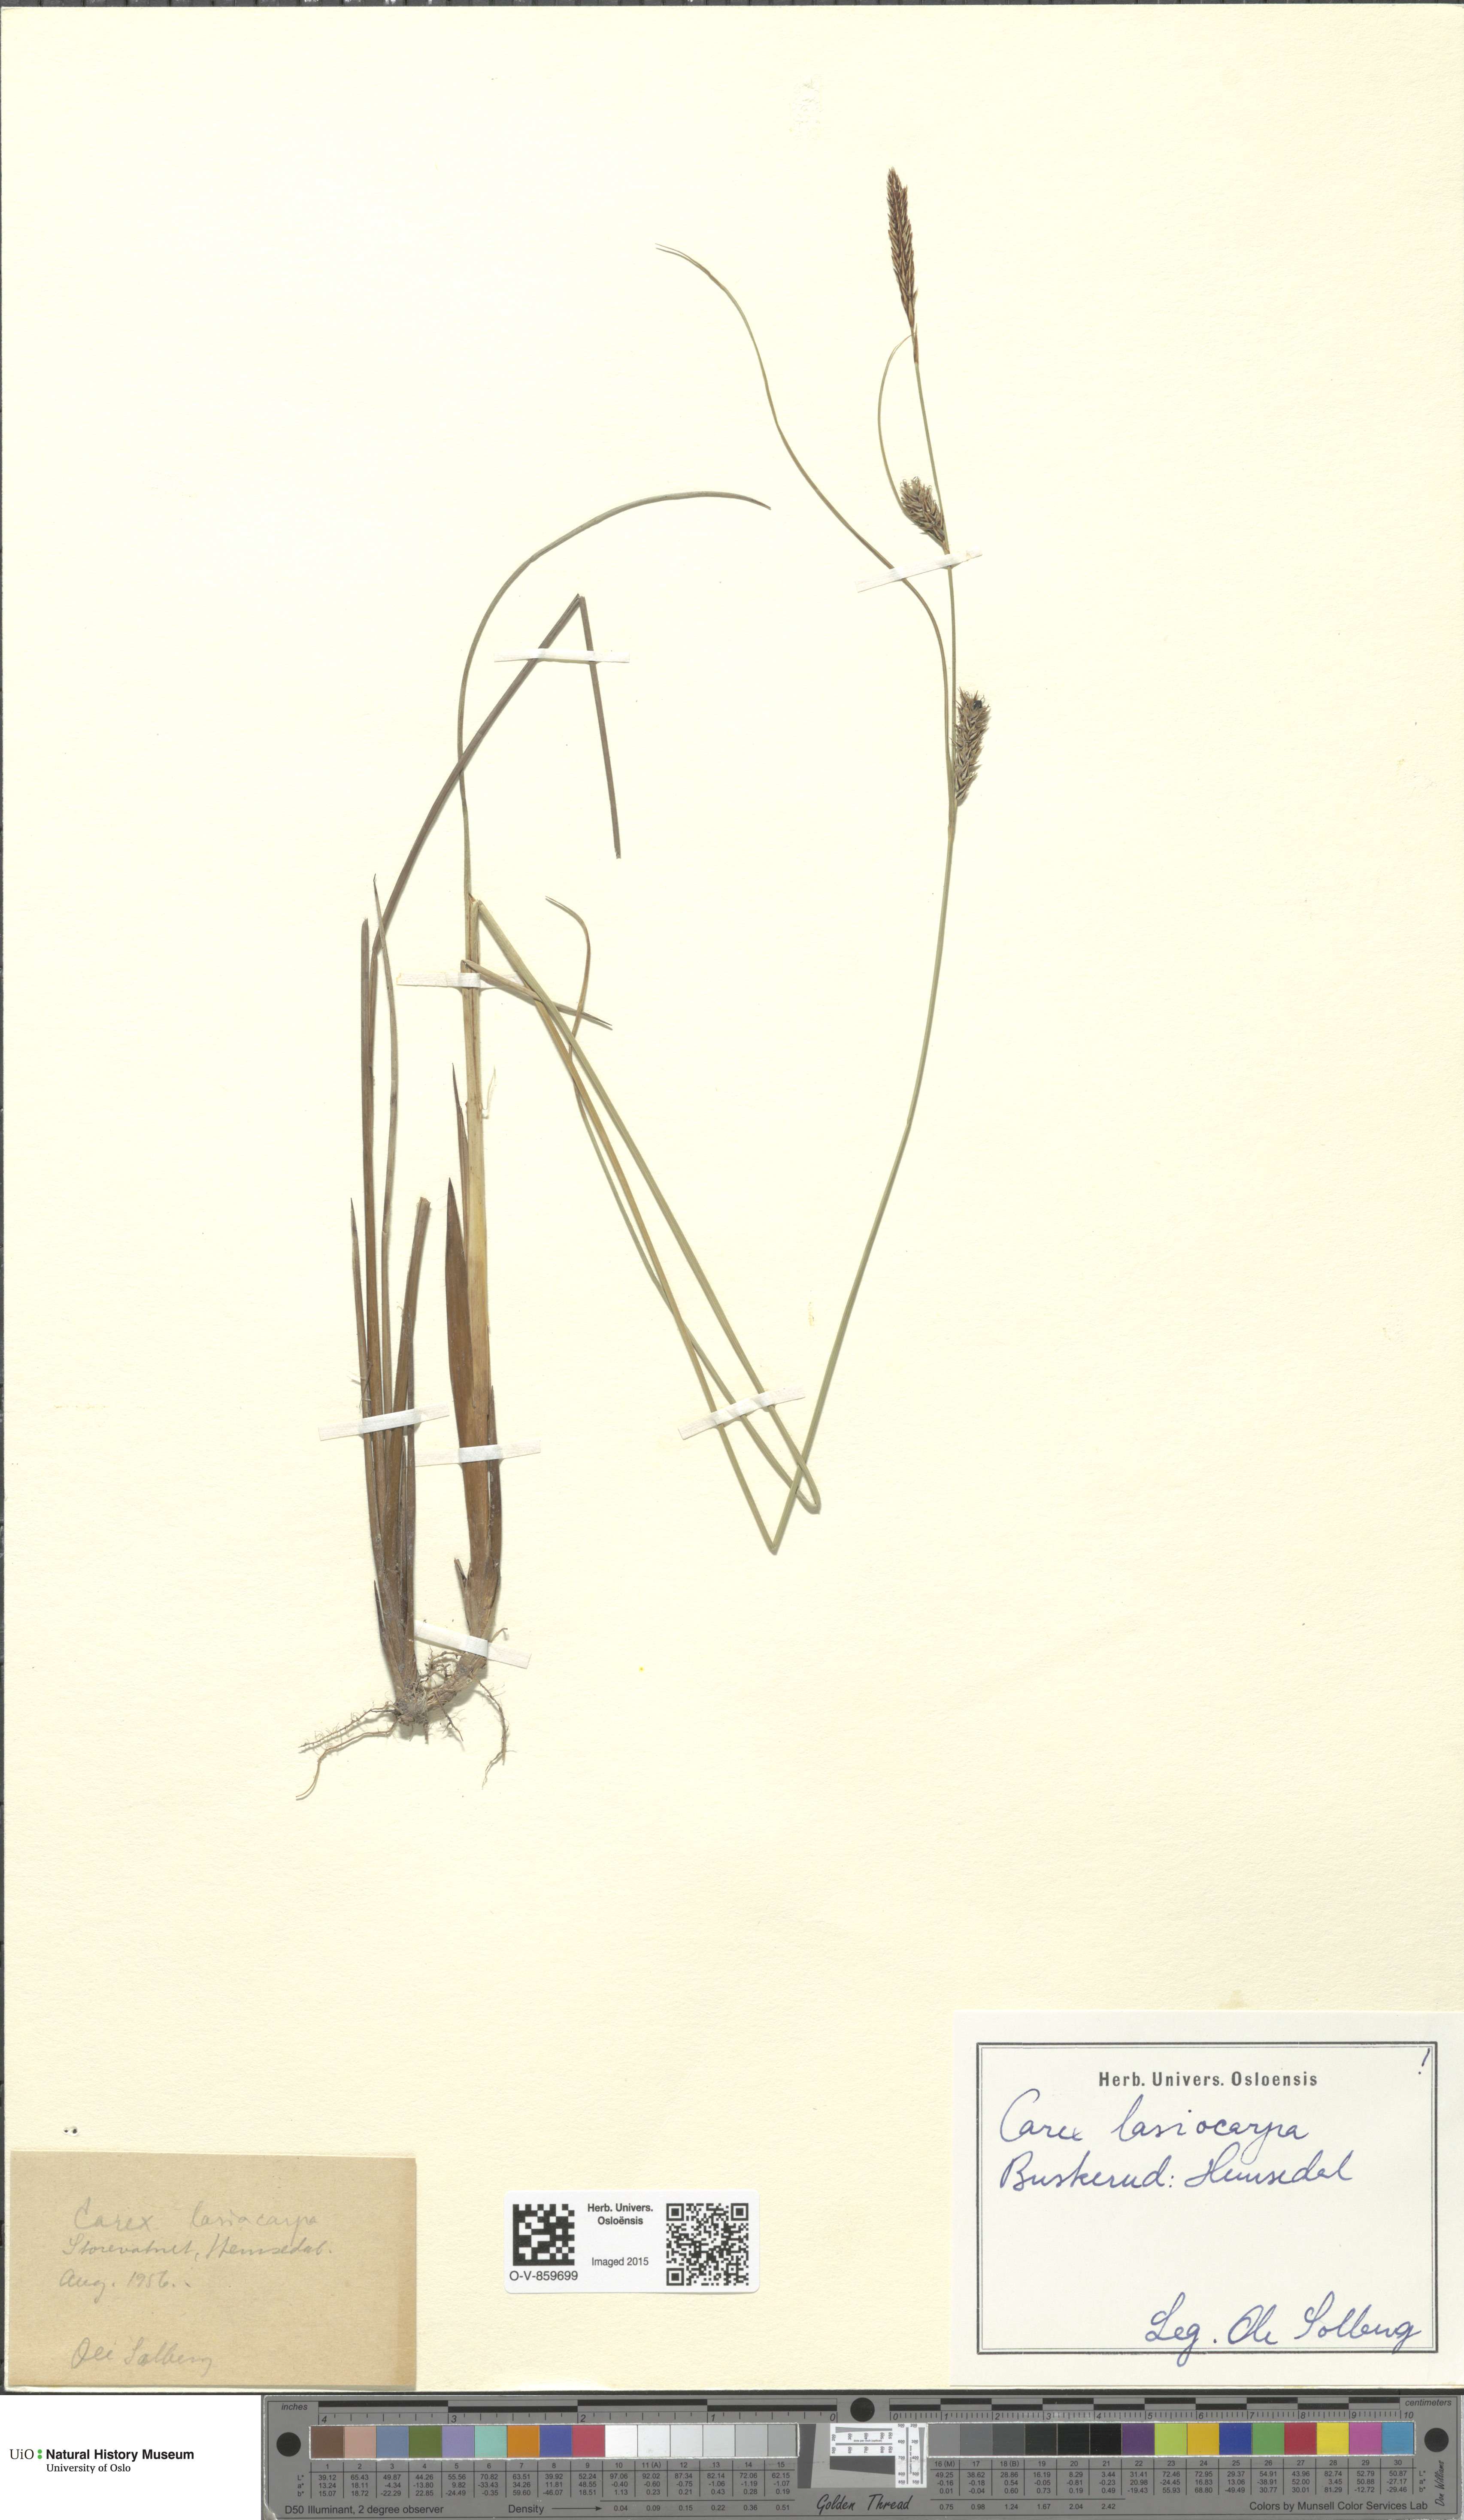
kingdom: Plantae
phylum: Tracheophyta
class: Liliopsida
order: Poales
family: Cyperaceae
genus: Carex
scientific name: Carex lasiocarpa
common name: Slender sedge
